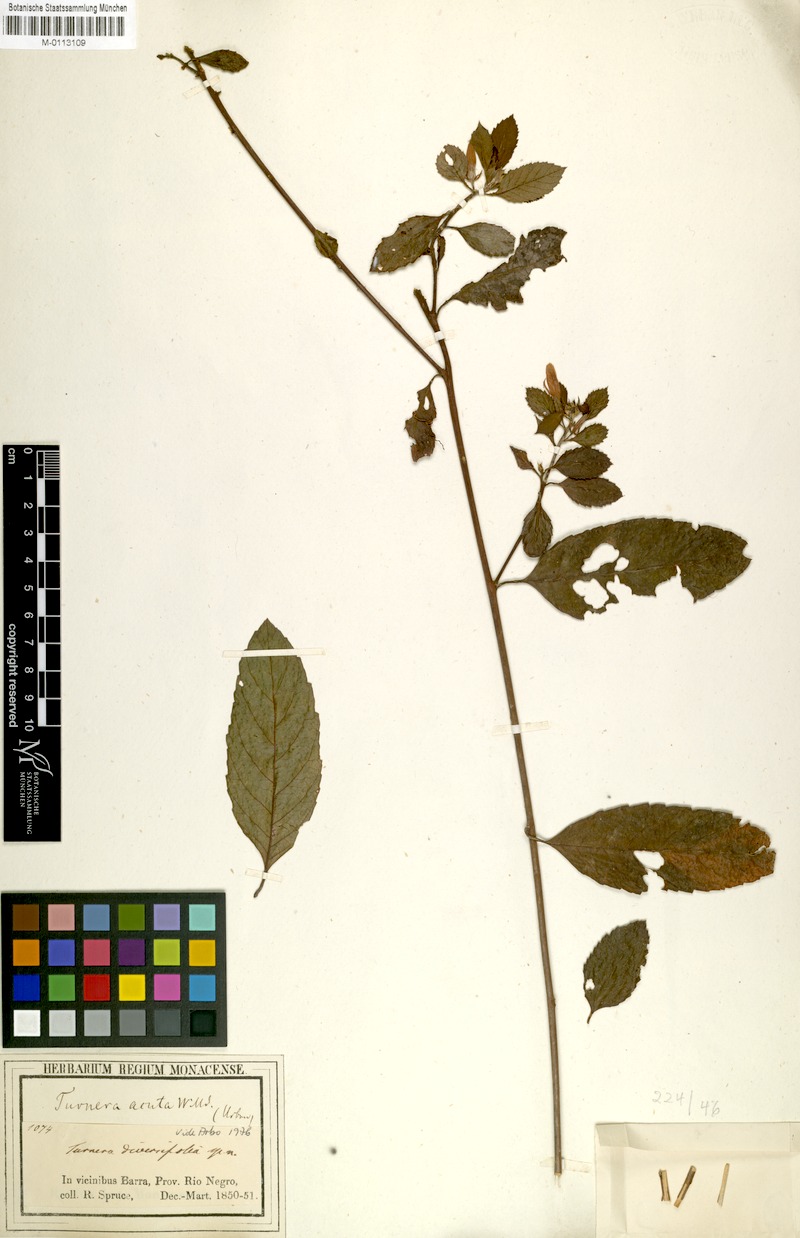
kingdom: Plantae
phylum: Tracheophyta
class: Magnoliopsida
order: Malpighiales
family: Turneraceae
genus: Turnera
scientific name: Turnera acuta
